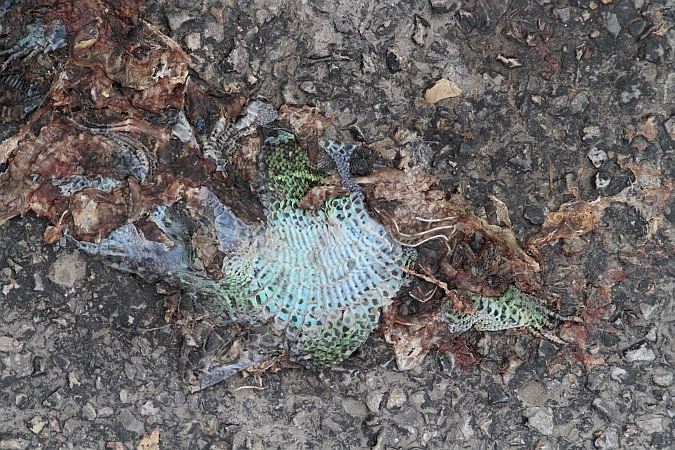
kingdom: Animalia
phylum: Chordata
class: Squamata
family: Lacertidae
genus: Lacerta
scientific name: Lacerta agilis
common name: Sand lizard
